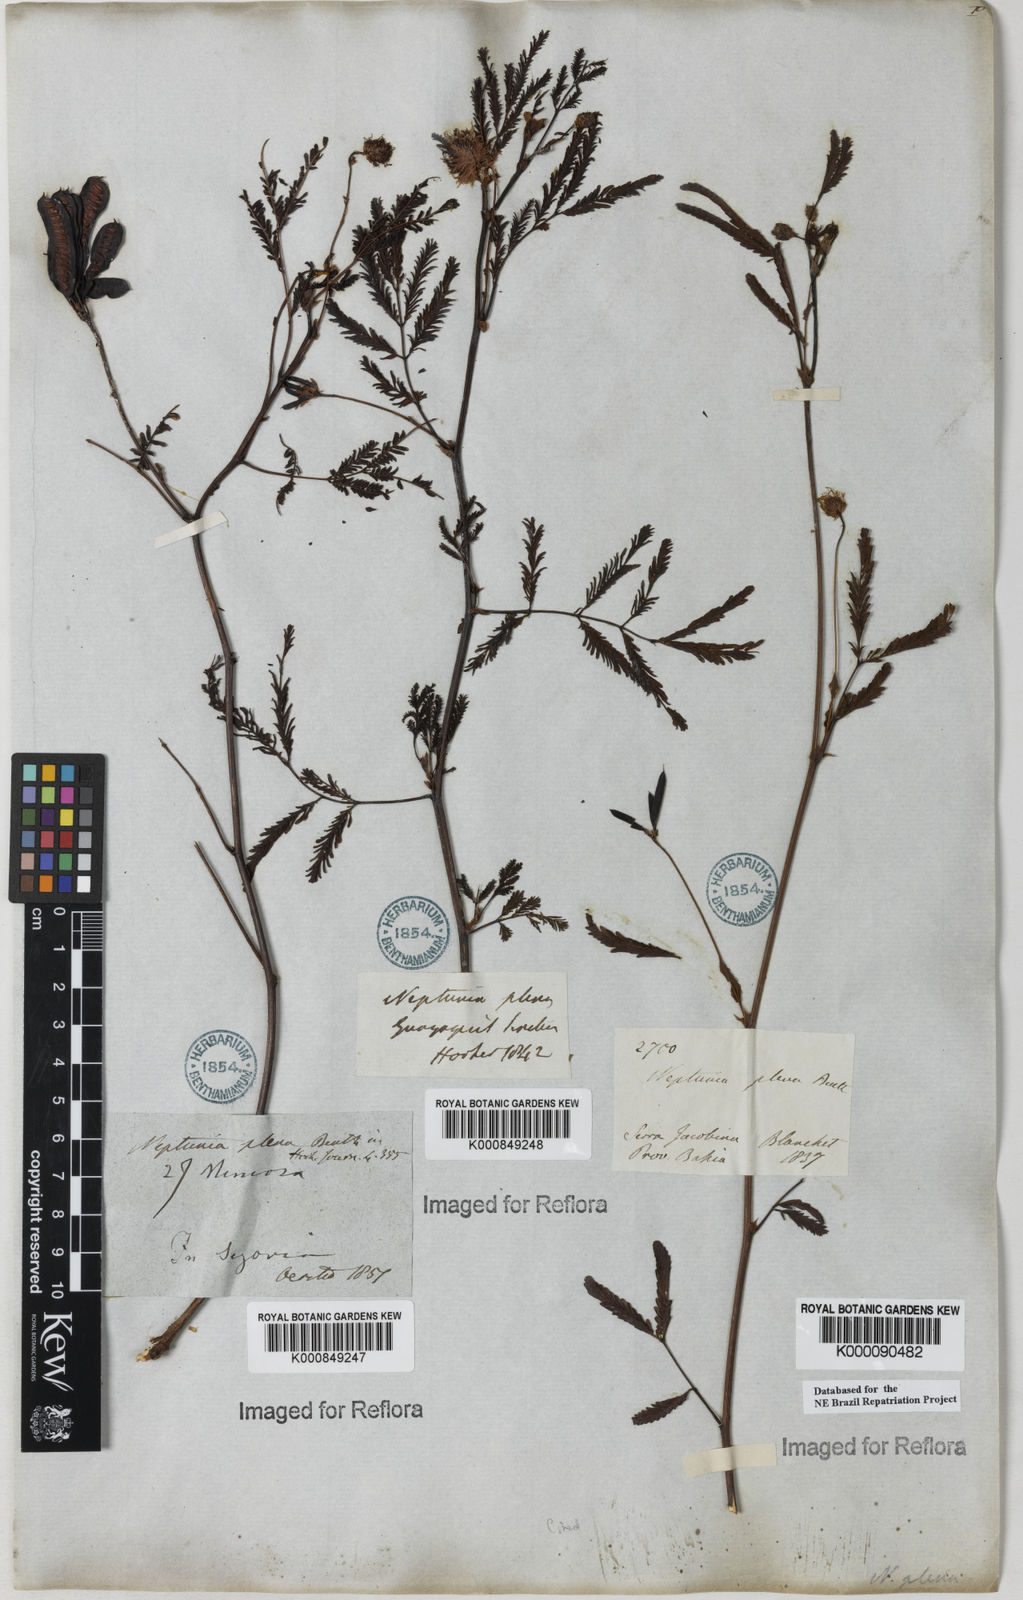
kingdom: Plantae
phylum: Tracheophyta
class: Magnoliopsida
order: Fabales
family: Fabaceae
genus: Neptunia
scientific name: Neptunia plena
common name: Dead and awake
